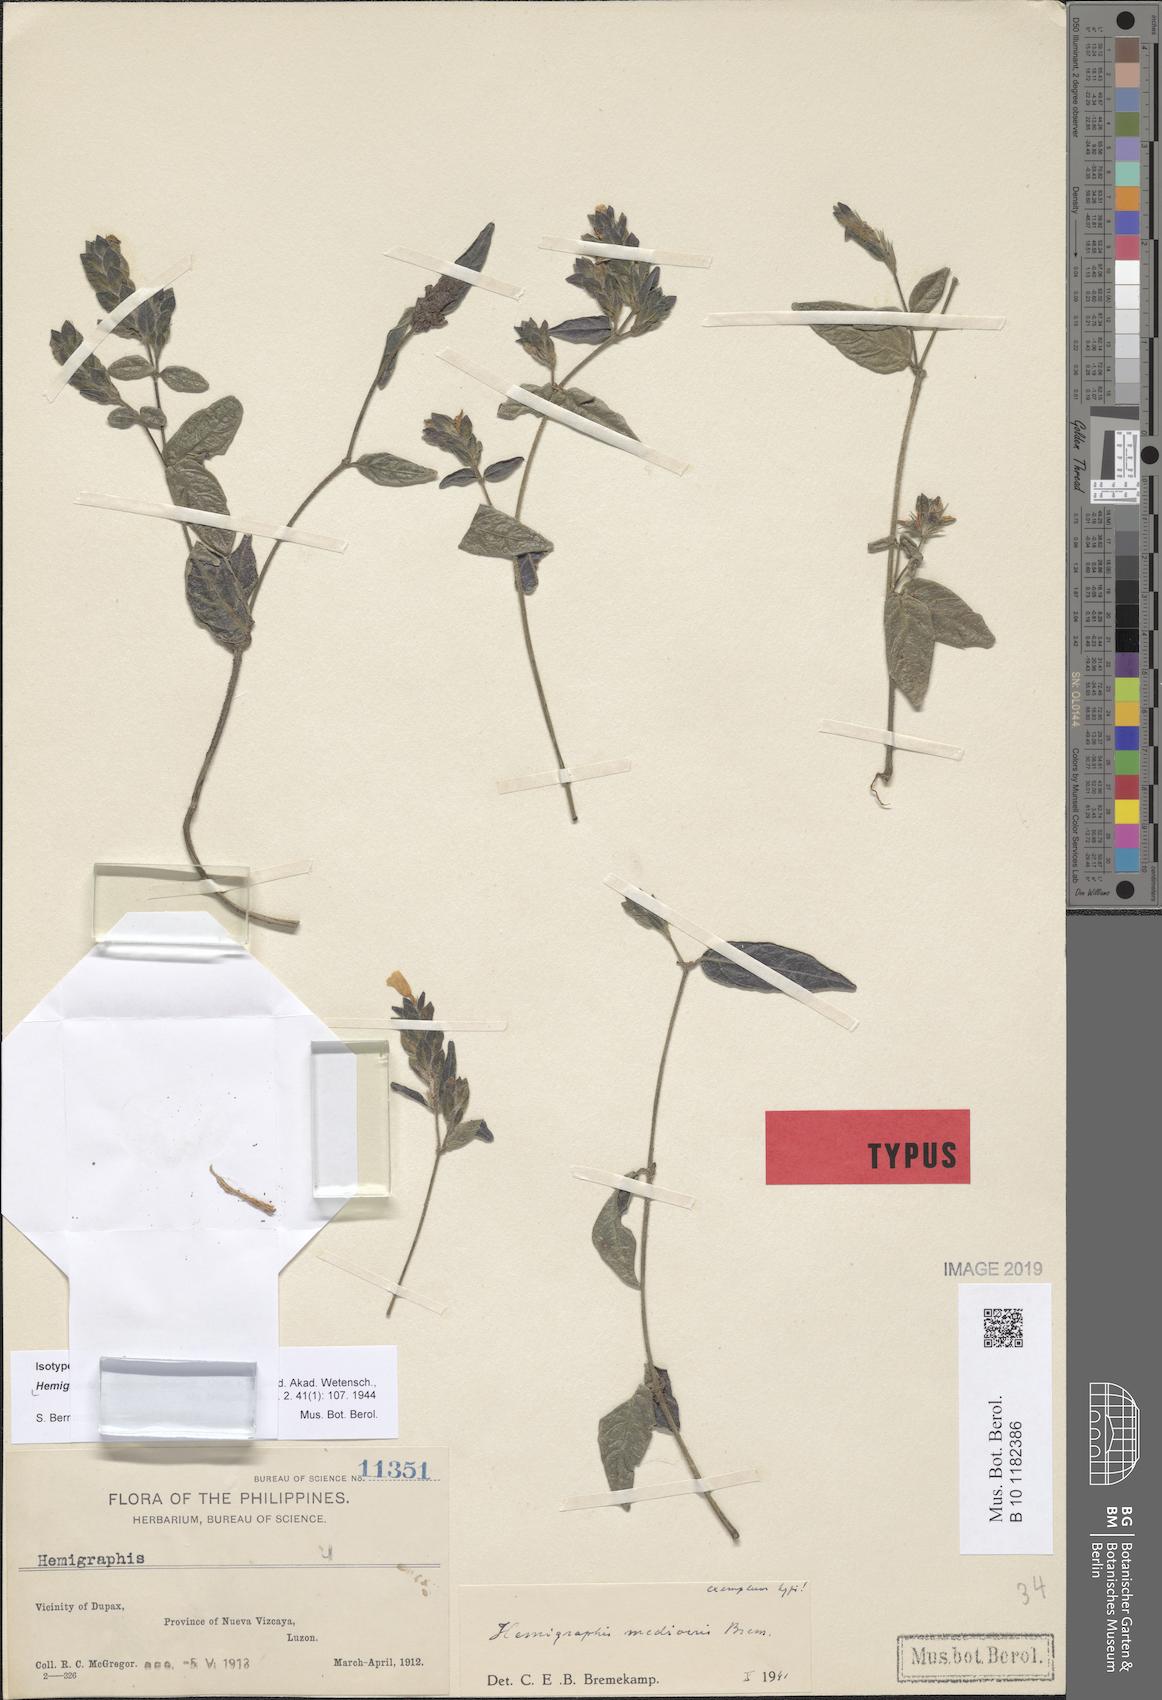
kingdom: Plantae
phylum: Tracheophyta
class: Magnoliopsida
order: Lamiales
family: Acanthaceae
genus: Strobilanthes
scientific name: Strobilanthes mcgregorii
